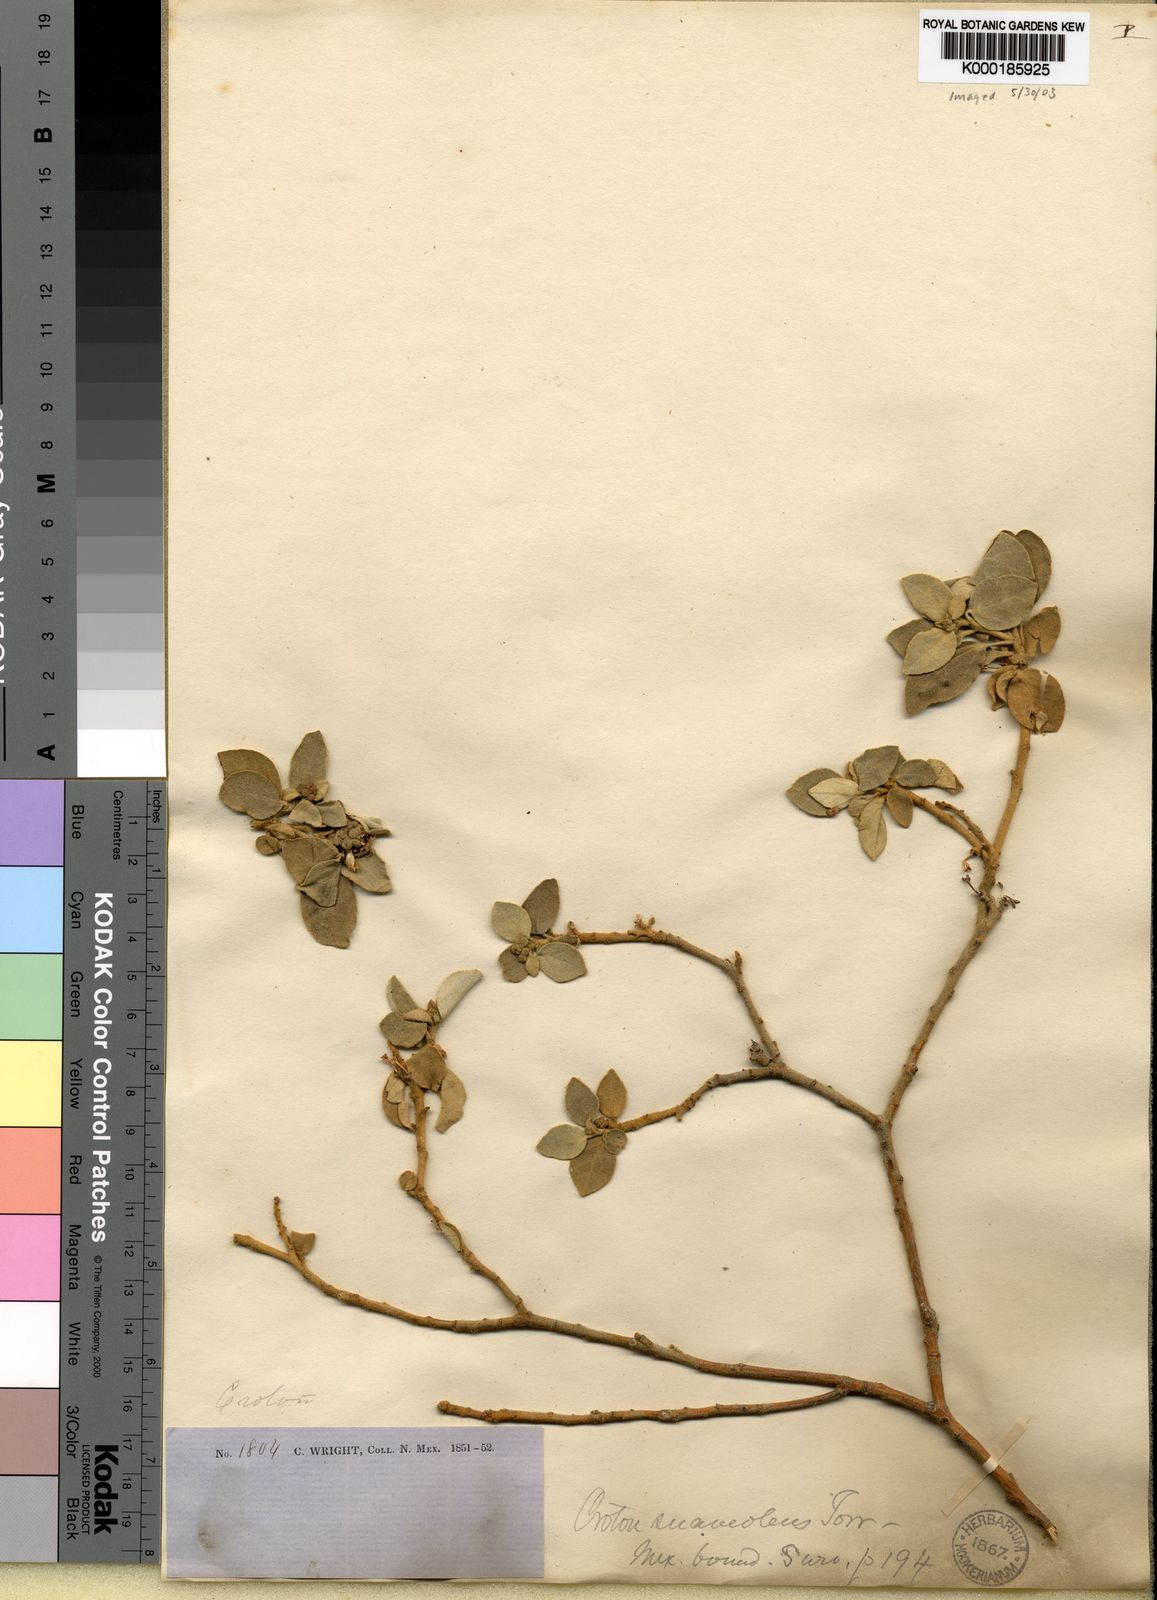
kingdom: Plantae
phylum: Tracheophyta
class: Magnoliopsida
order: Malpighiales
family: Euphorbiaceae
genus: Croton
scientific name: Croton suaveolens
